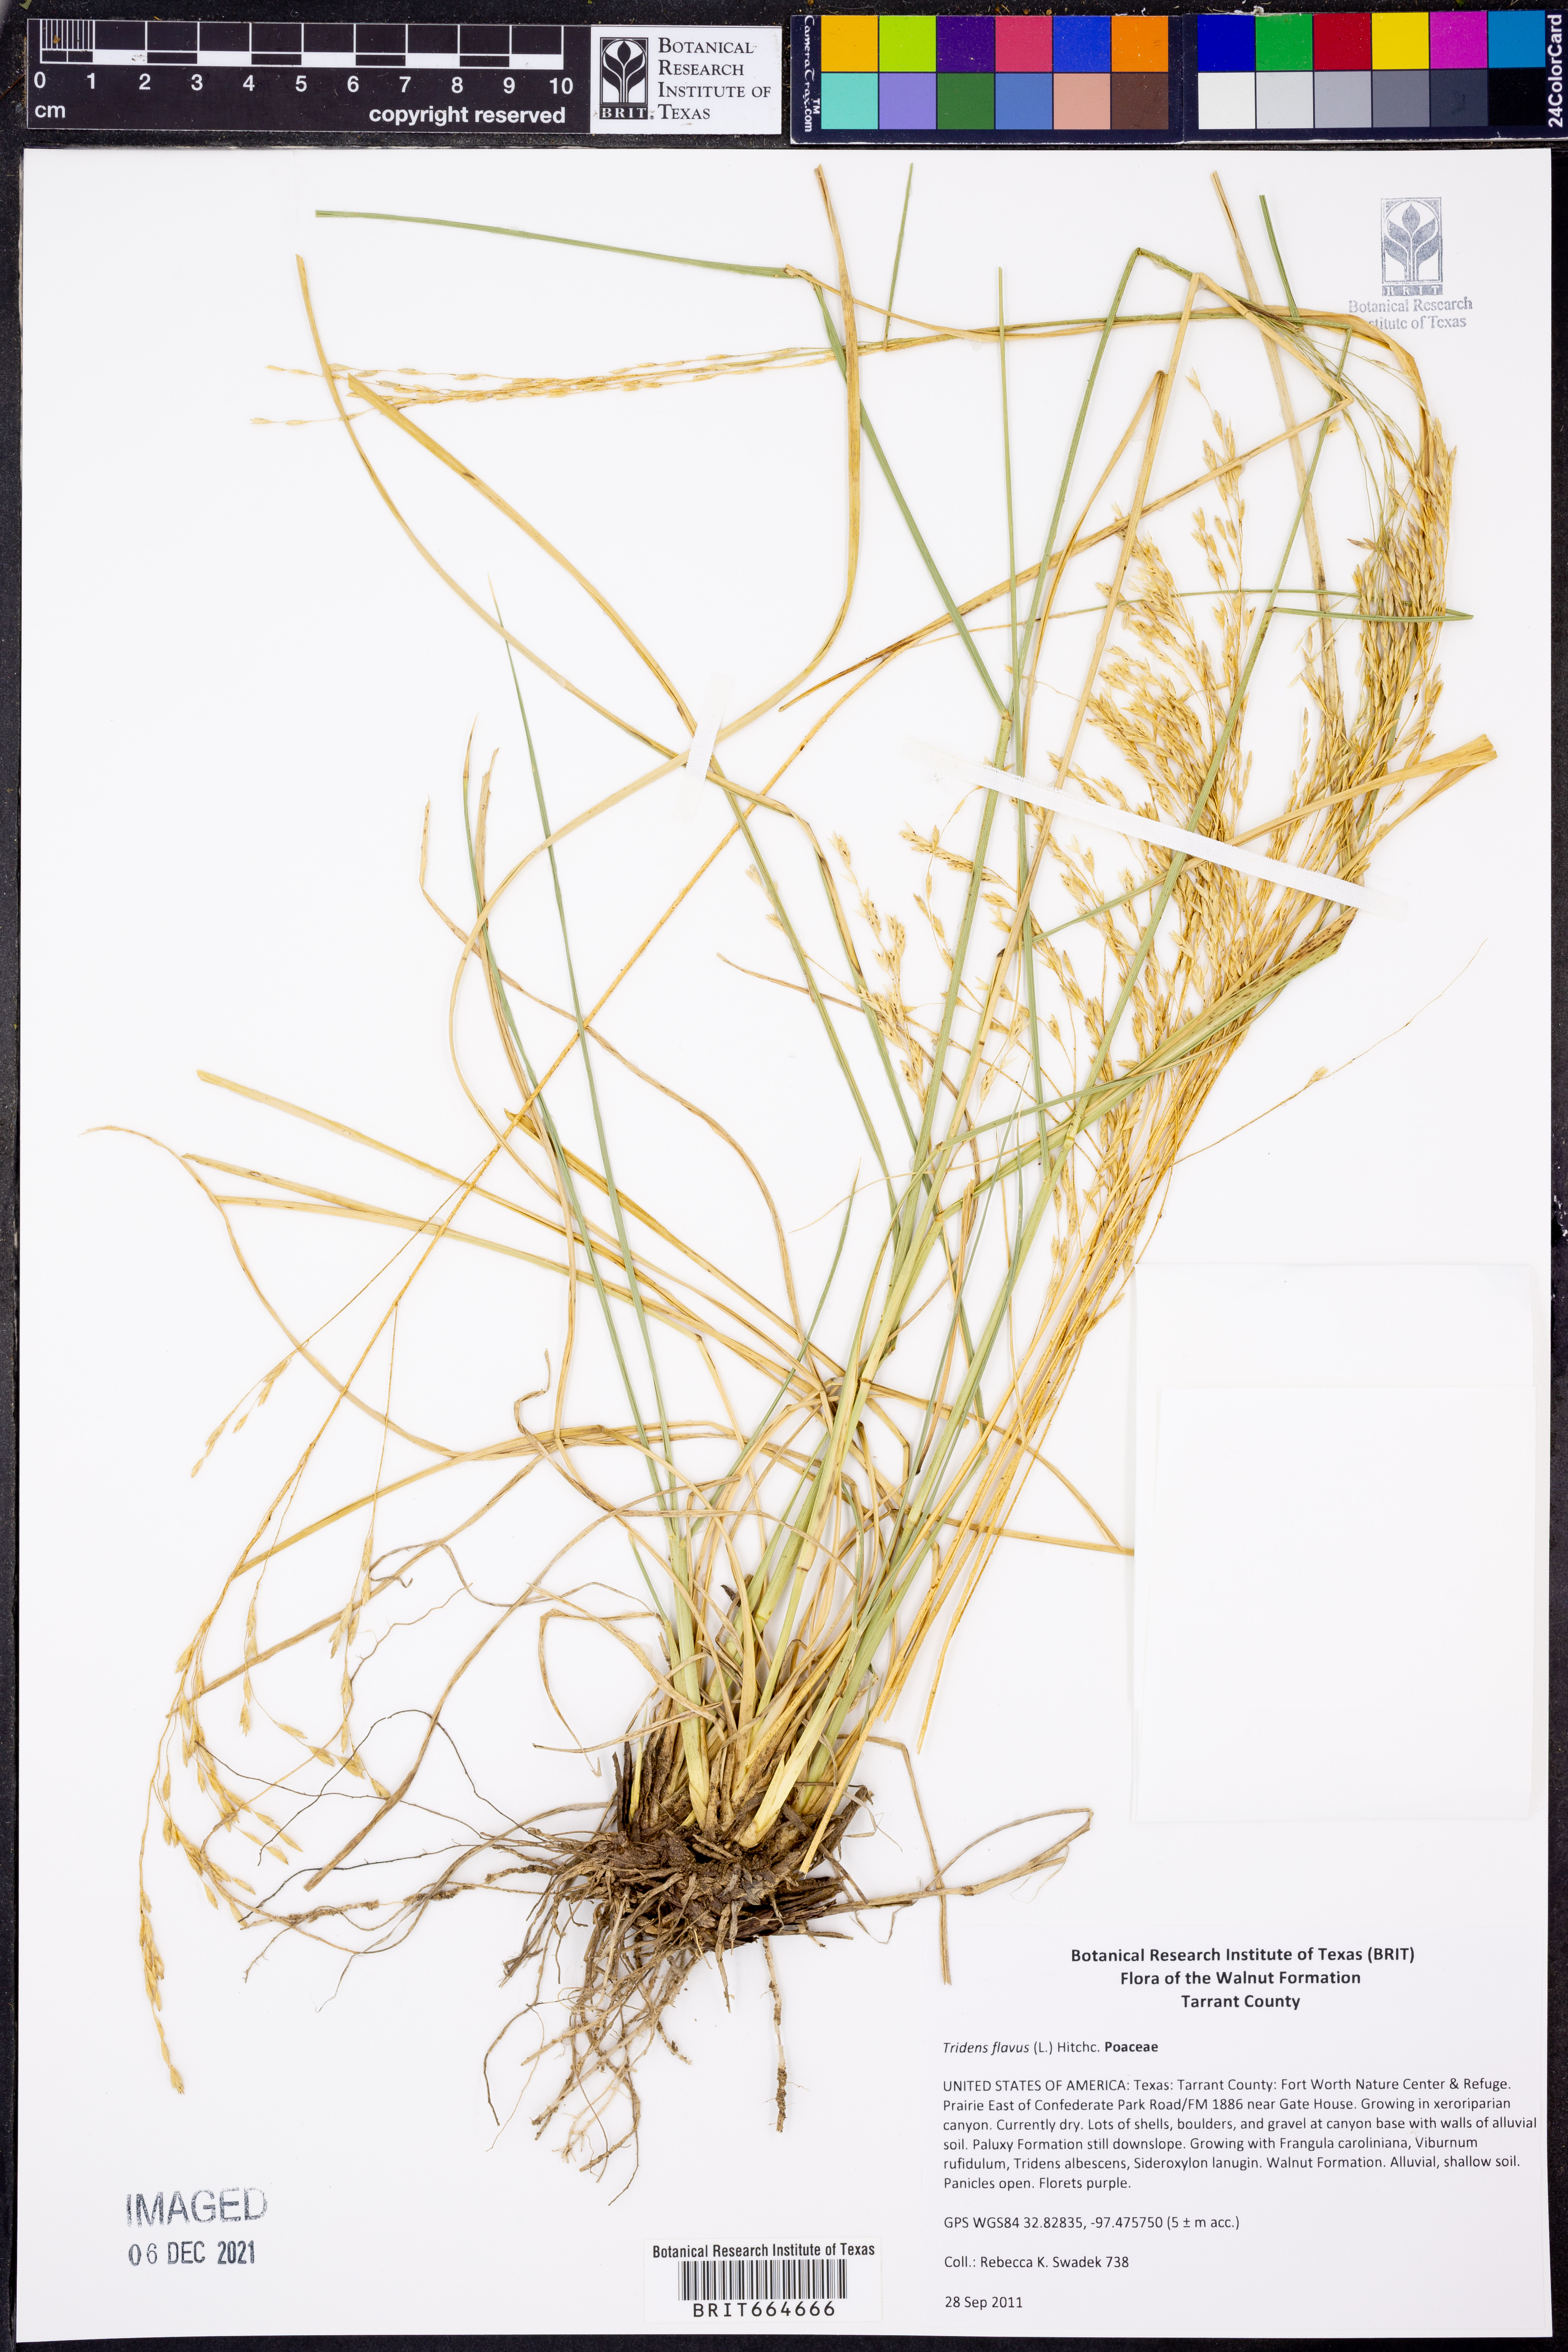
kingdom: Plantae
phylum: Tracheophyta
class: Liliopsida
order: Poales
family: Poaceae
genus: Tridens
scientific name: Tridens flavus
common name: Purpletop
